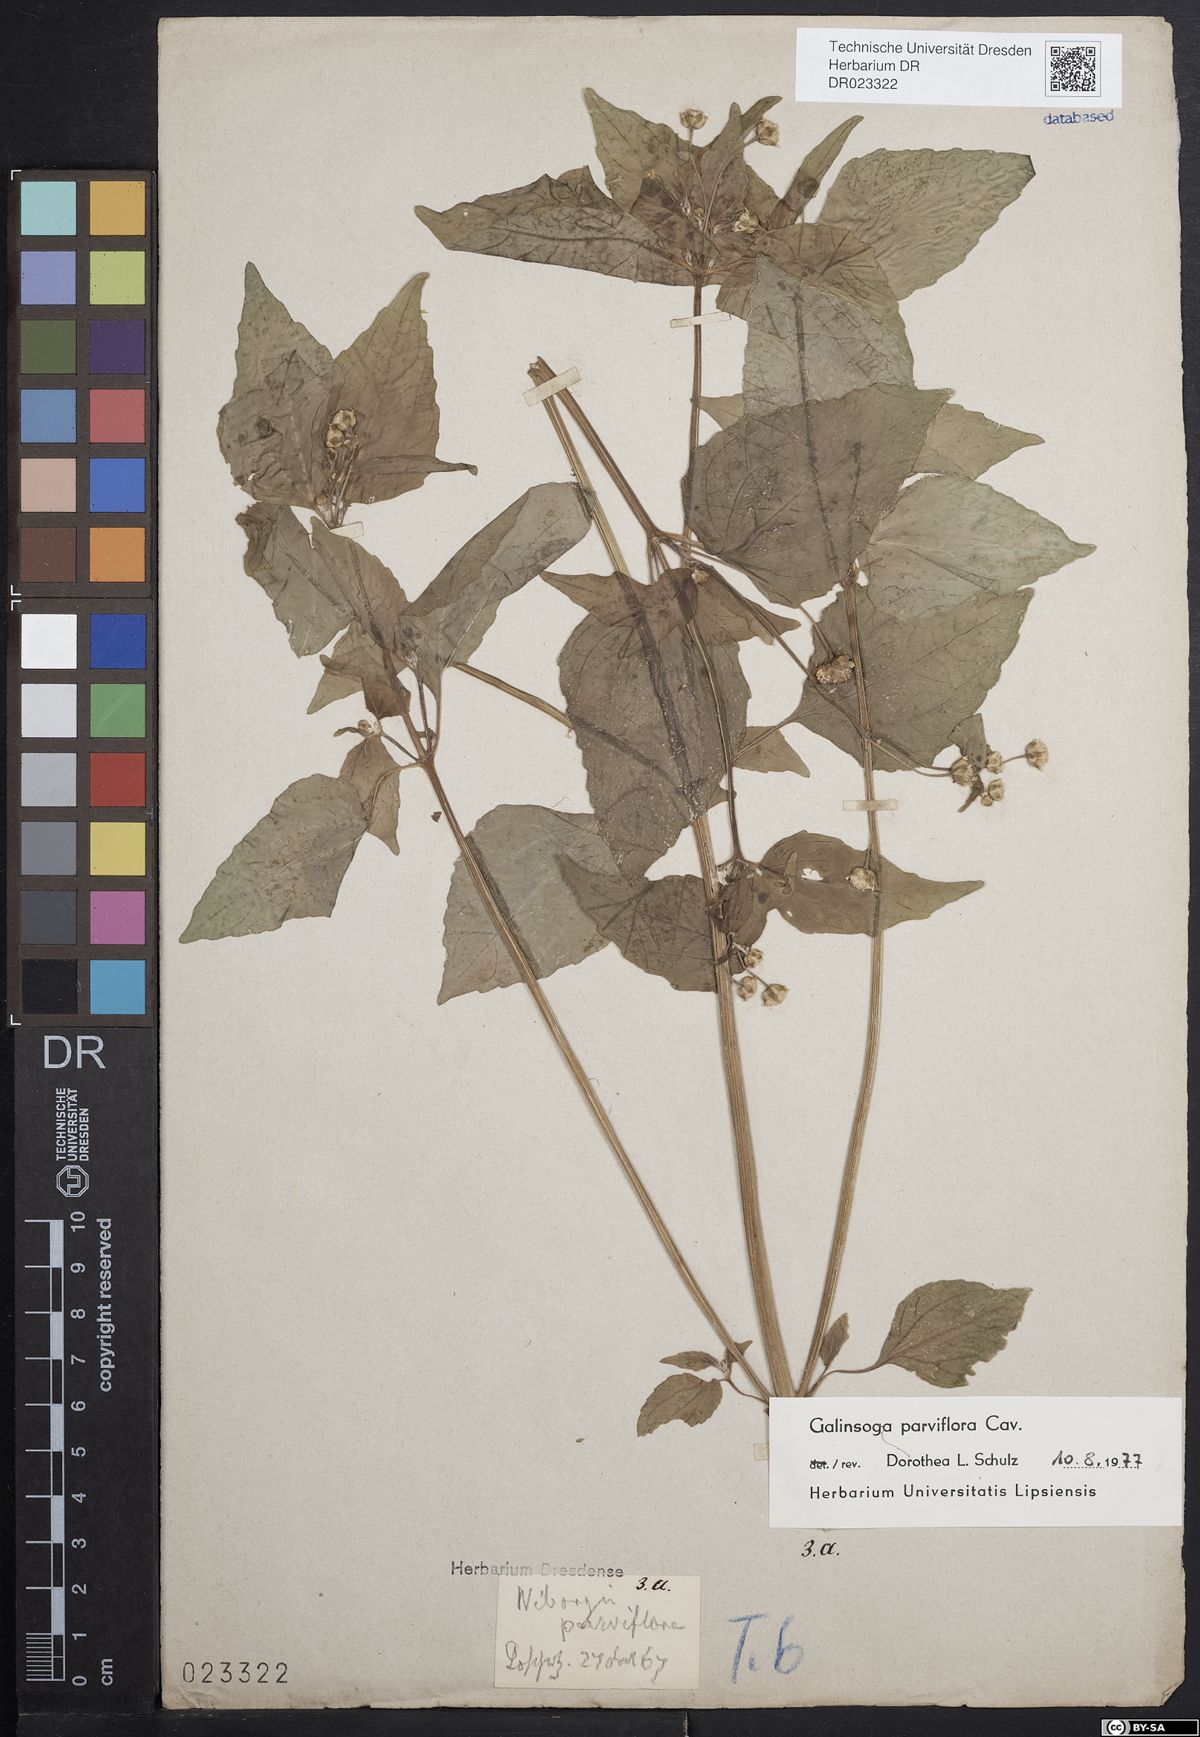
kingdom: Plantae
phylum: Tracheophyta
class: Magnoliopsida
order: Asterales
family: Asteraceae
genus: Galinsoga
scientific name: Galinsoga parviflora
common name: Gallant soldier
